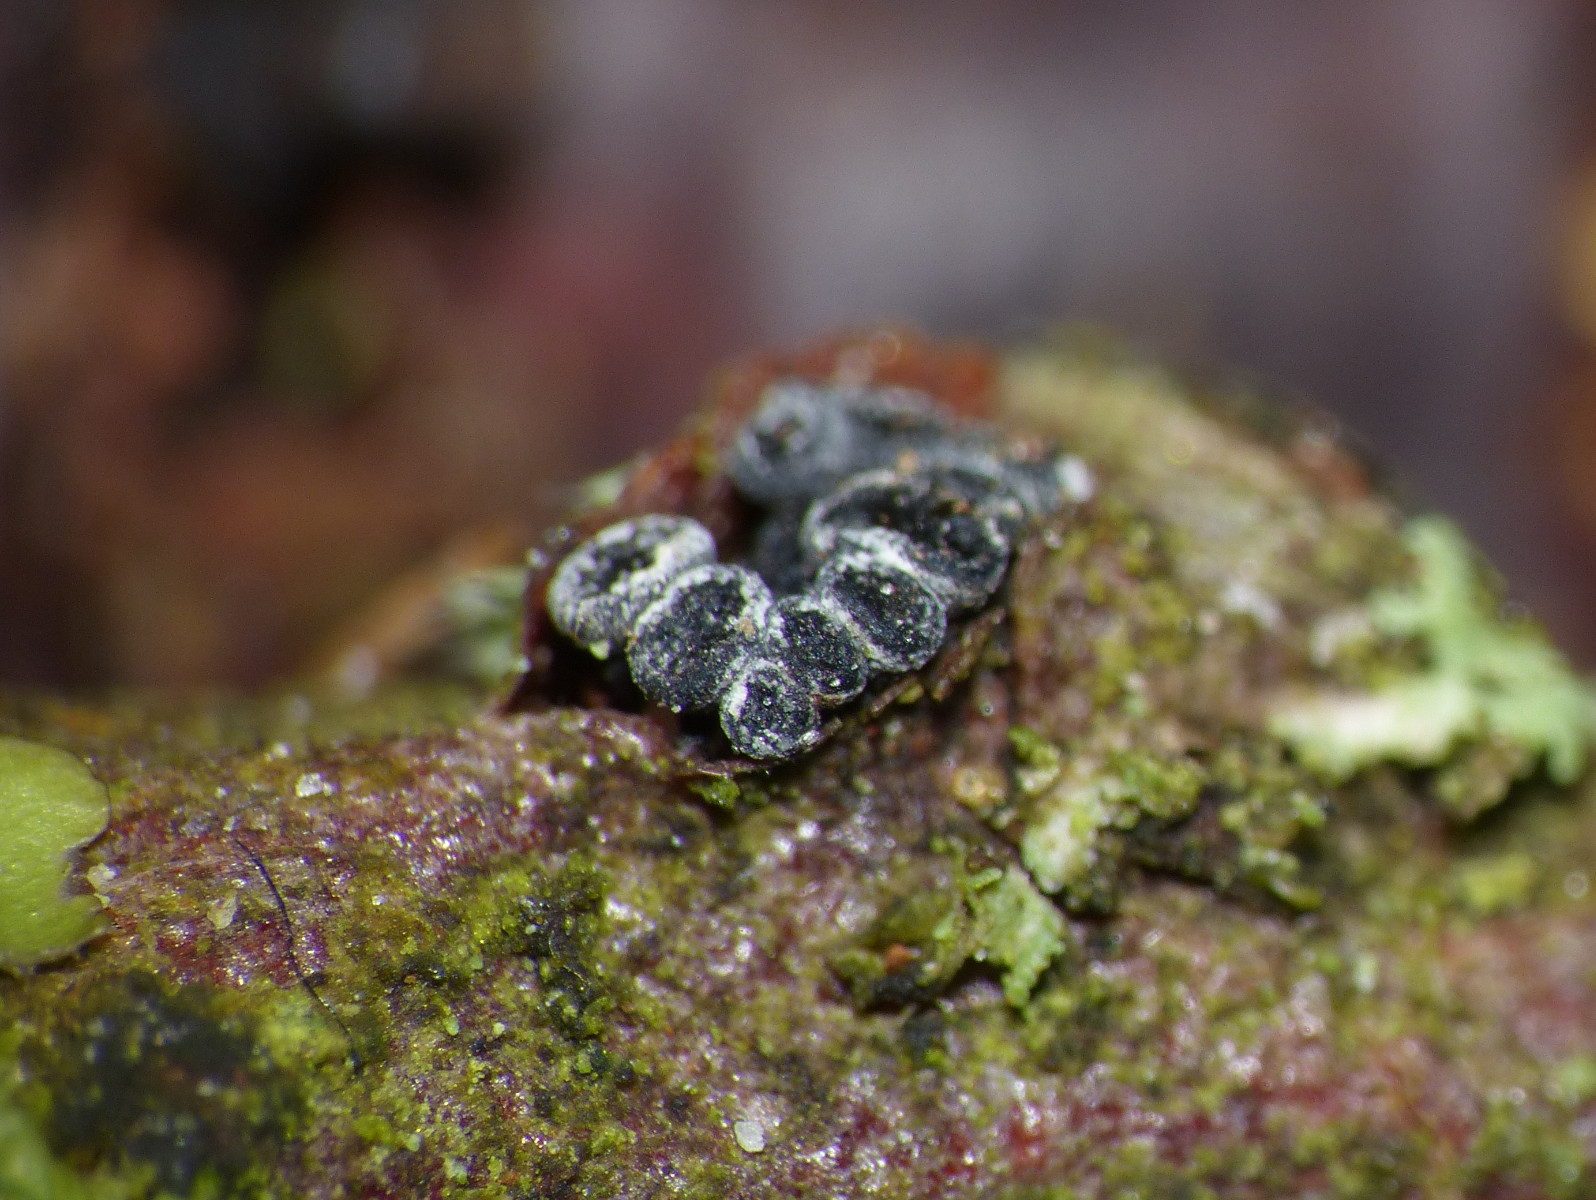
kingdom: Fungi
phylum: Ascomycota
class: Leotiomycetes
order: Leotiales
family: Tympanidaceae
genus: Tympanis
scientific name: Tympanis alnea
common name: almindelig knippeskive
